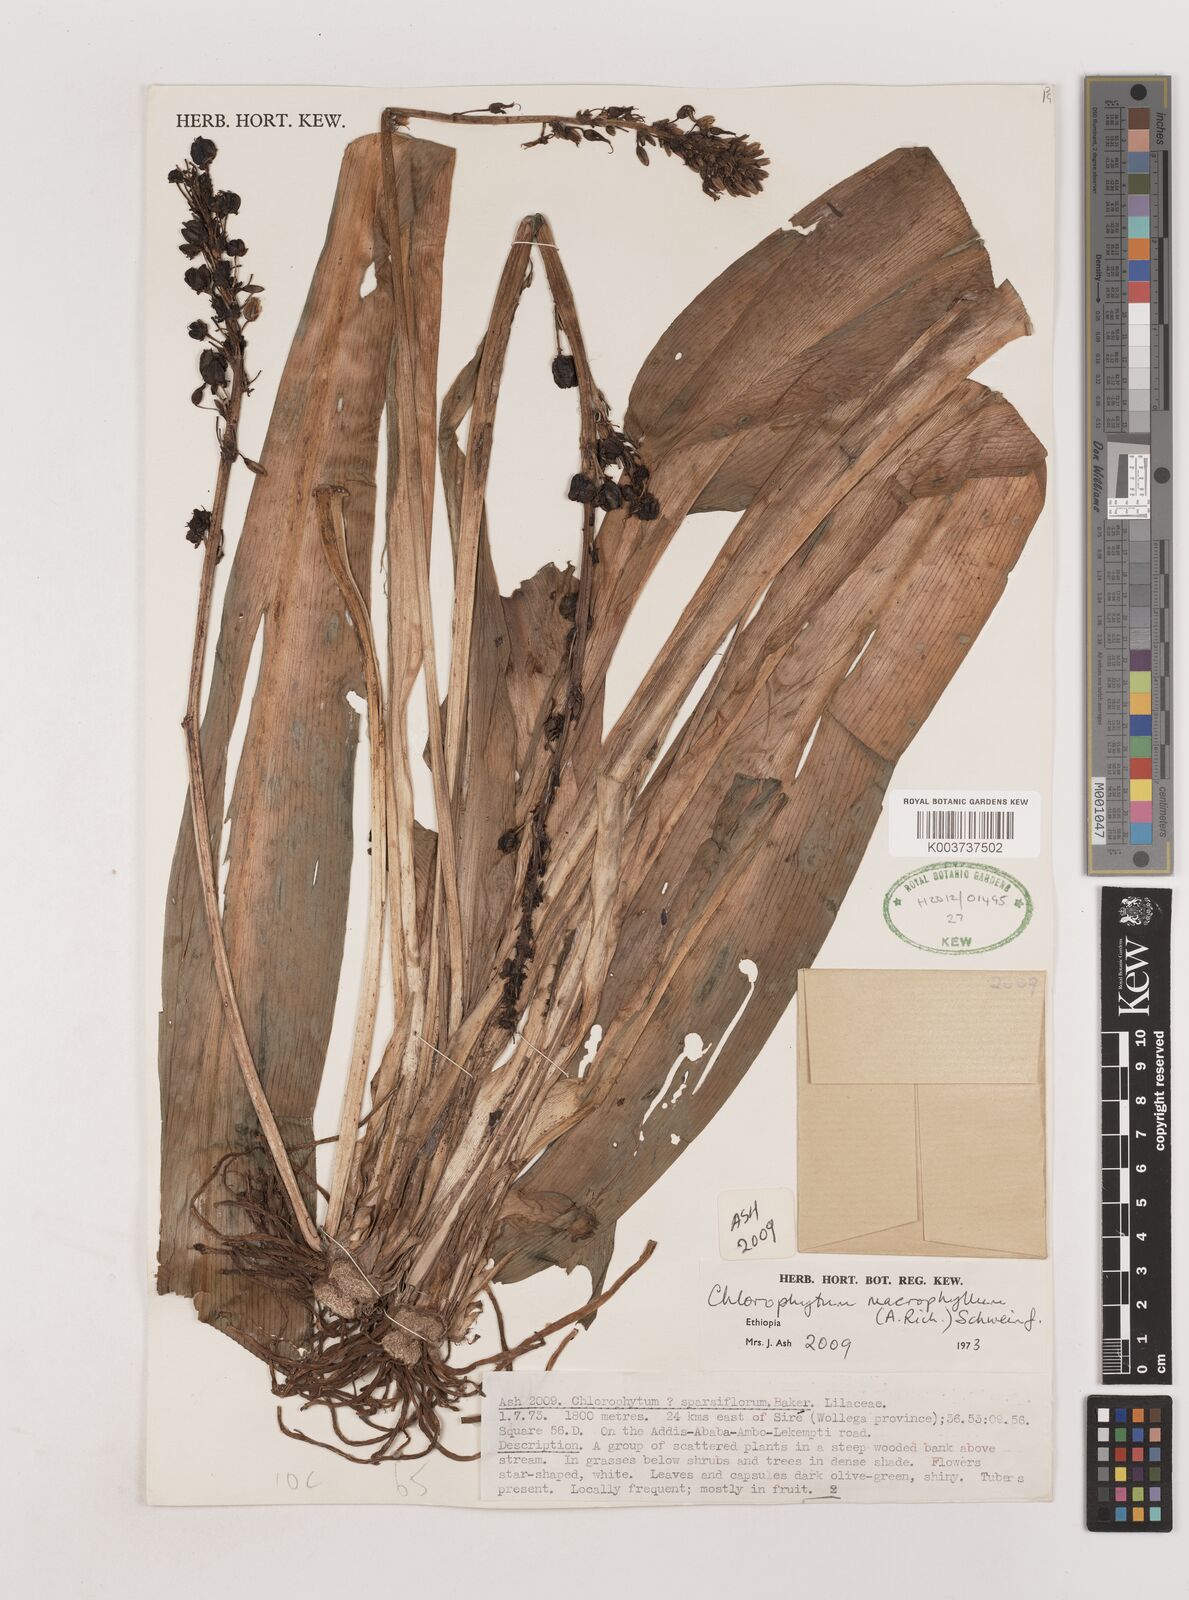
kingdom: Plantae
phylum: Tracheophyta
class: Liliopsida
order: Asparagales
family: Asparagaceae
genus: Chlorophytum
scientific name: Chlorophytum macrophyllum
